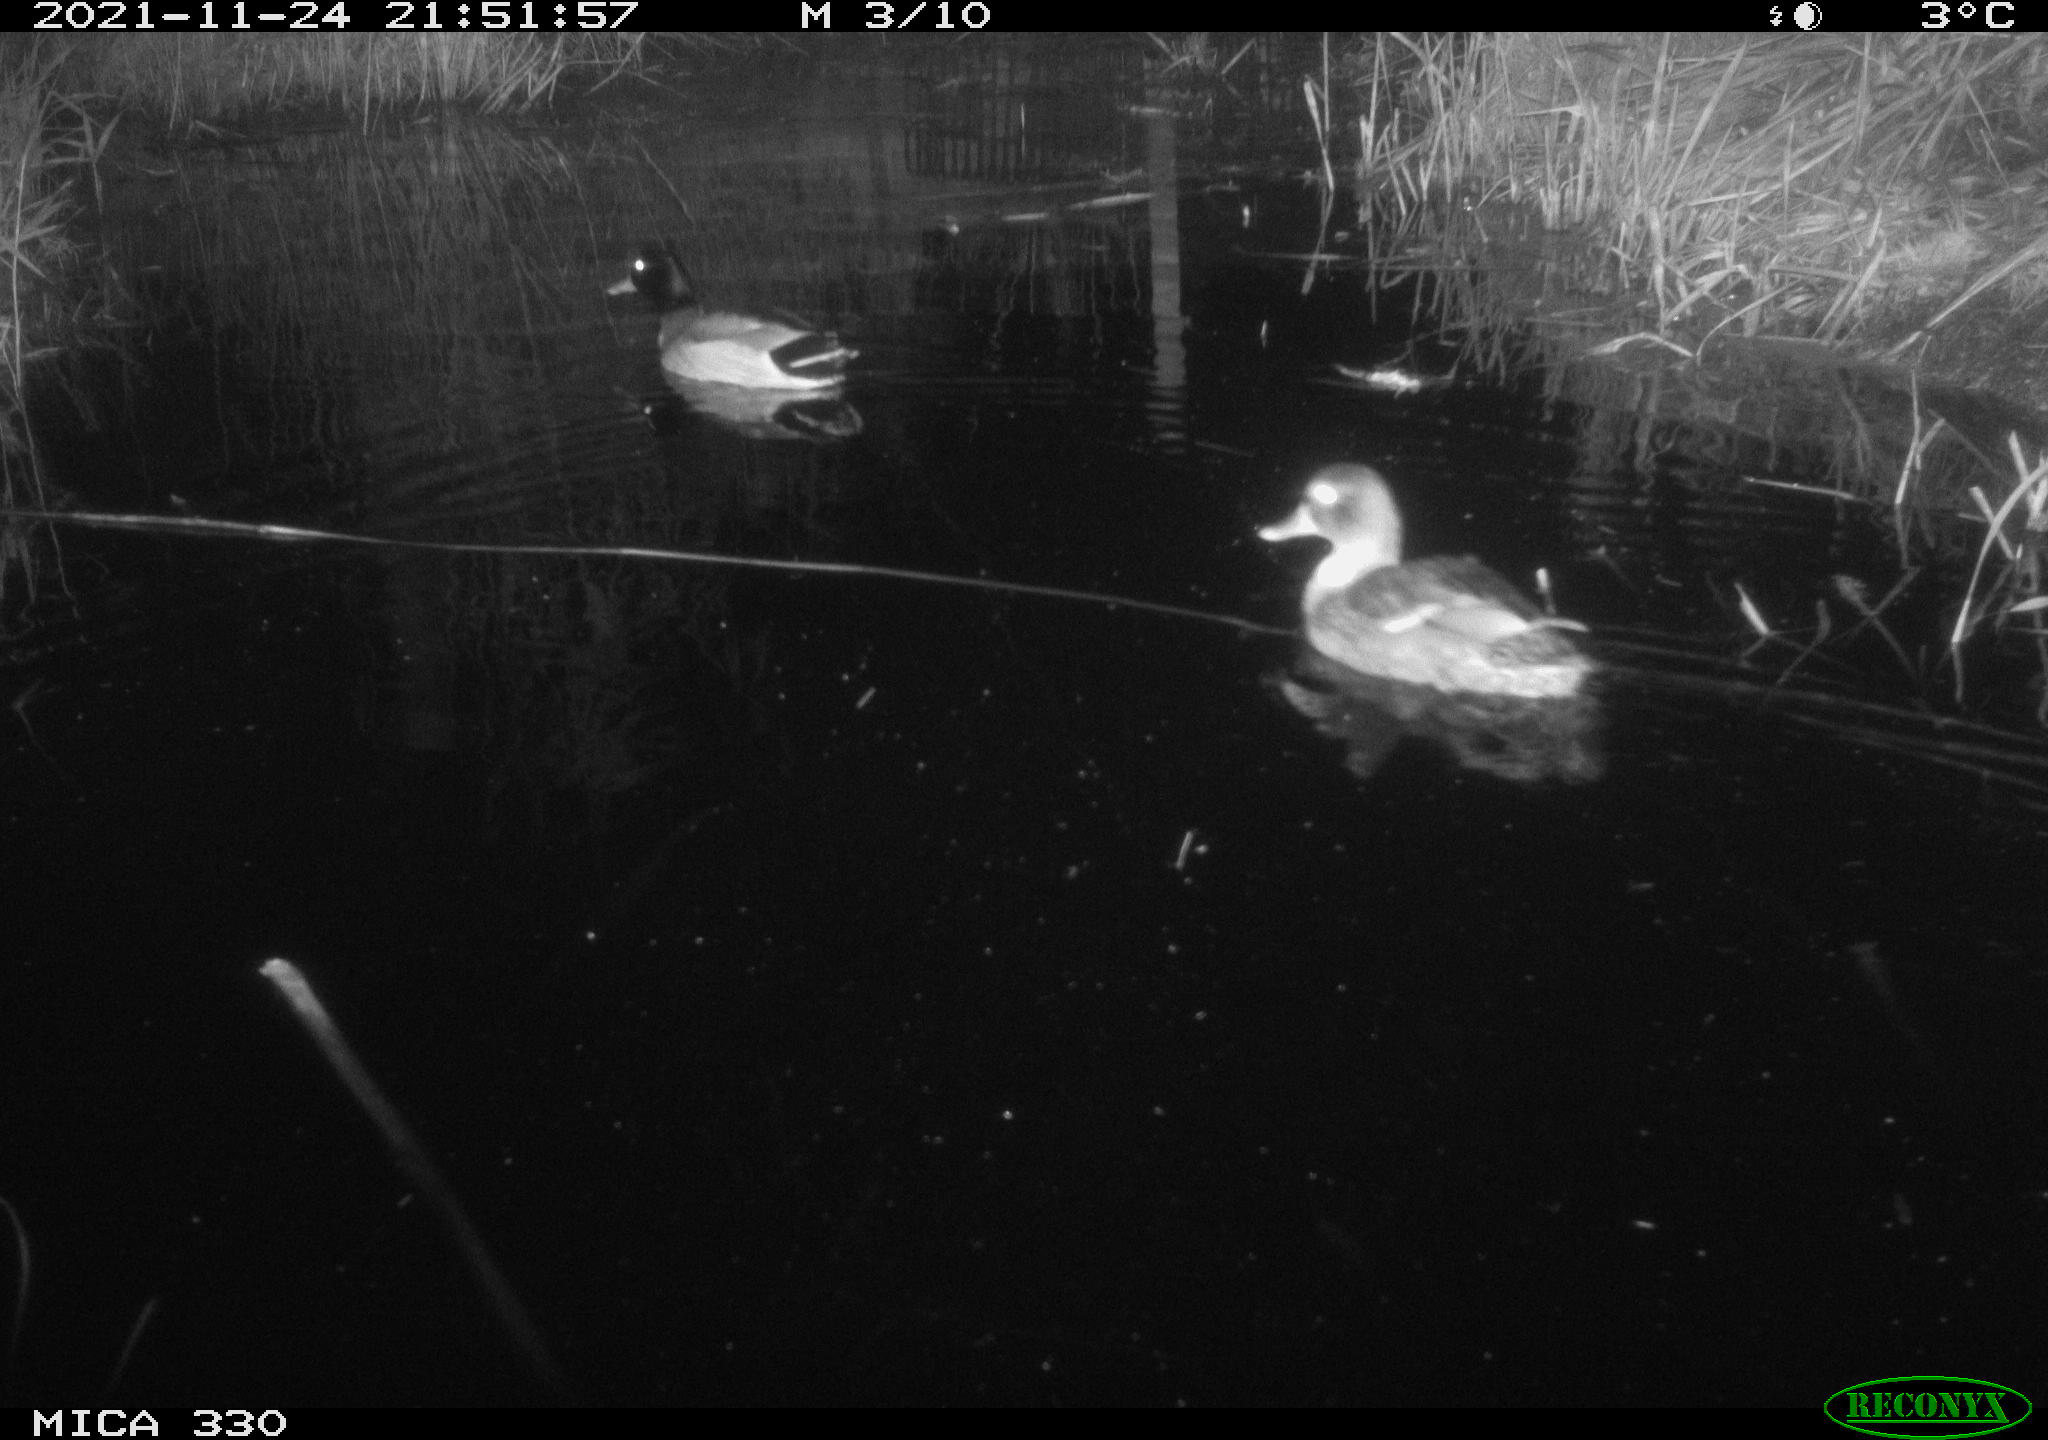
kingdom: Animalia
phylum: Chordata
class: Aves
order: Anseriformes
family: Anatidae
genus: Anas
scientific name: Anas platyrhynchos
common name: Mallard
